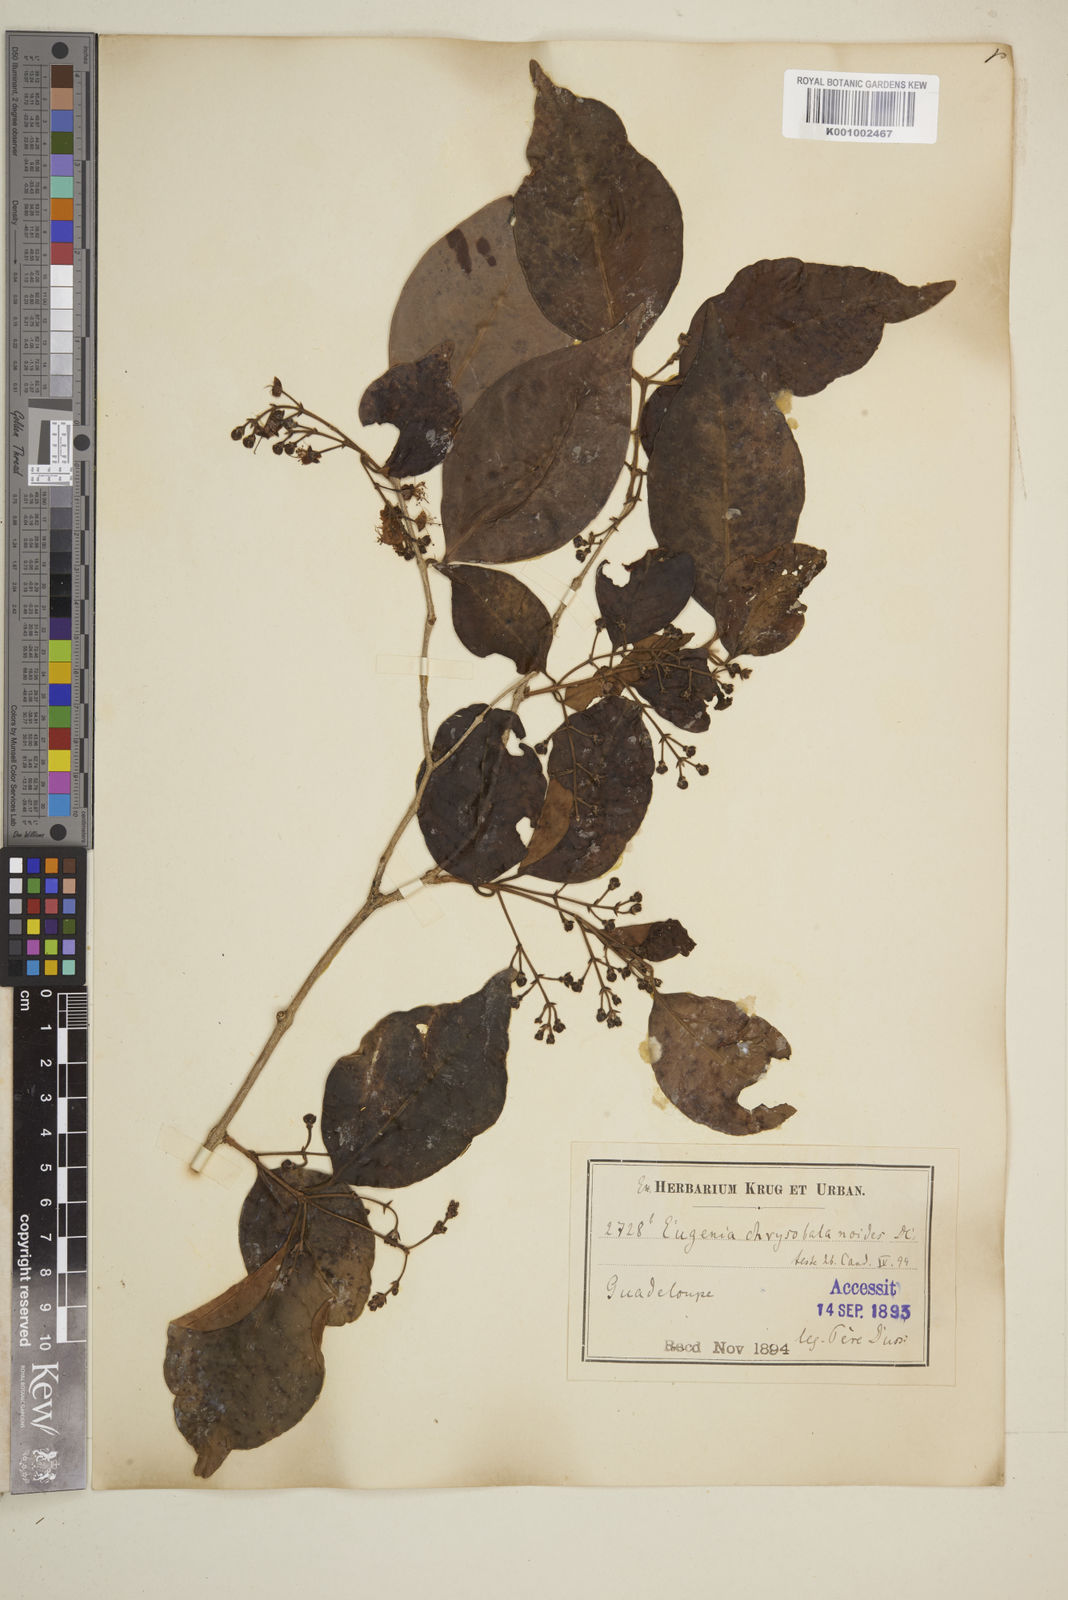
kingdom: Plantae
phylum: Tracheophyta
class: Magnoliopsida
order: Myrtales
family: Myrtaceae
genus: Eugenia
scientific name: Eugenia chrysobalanoides
